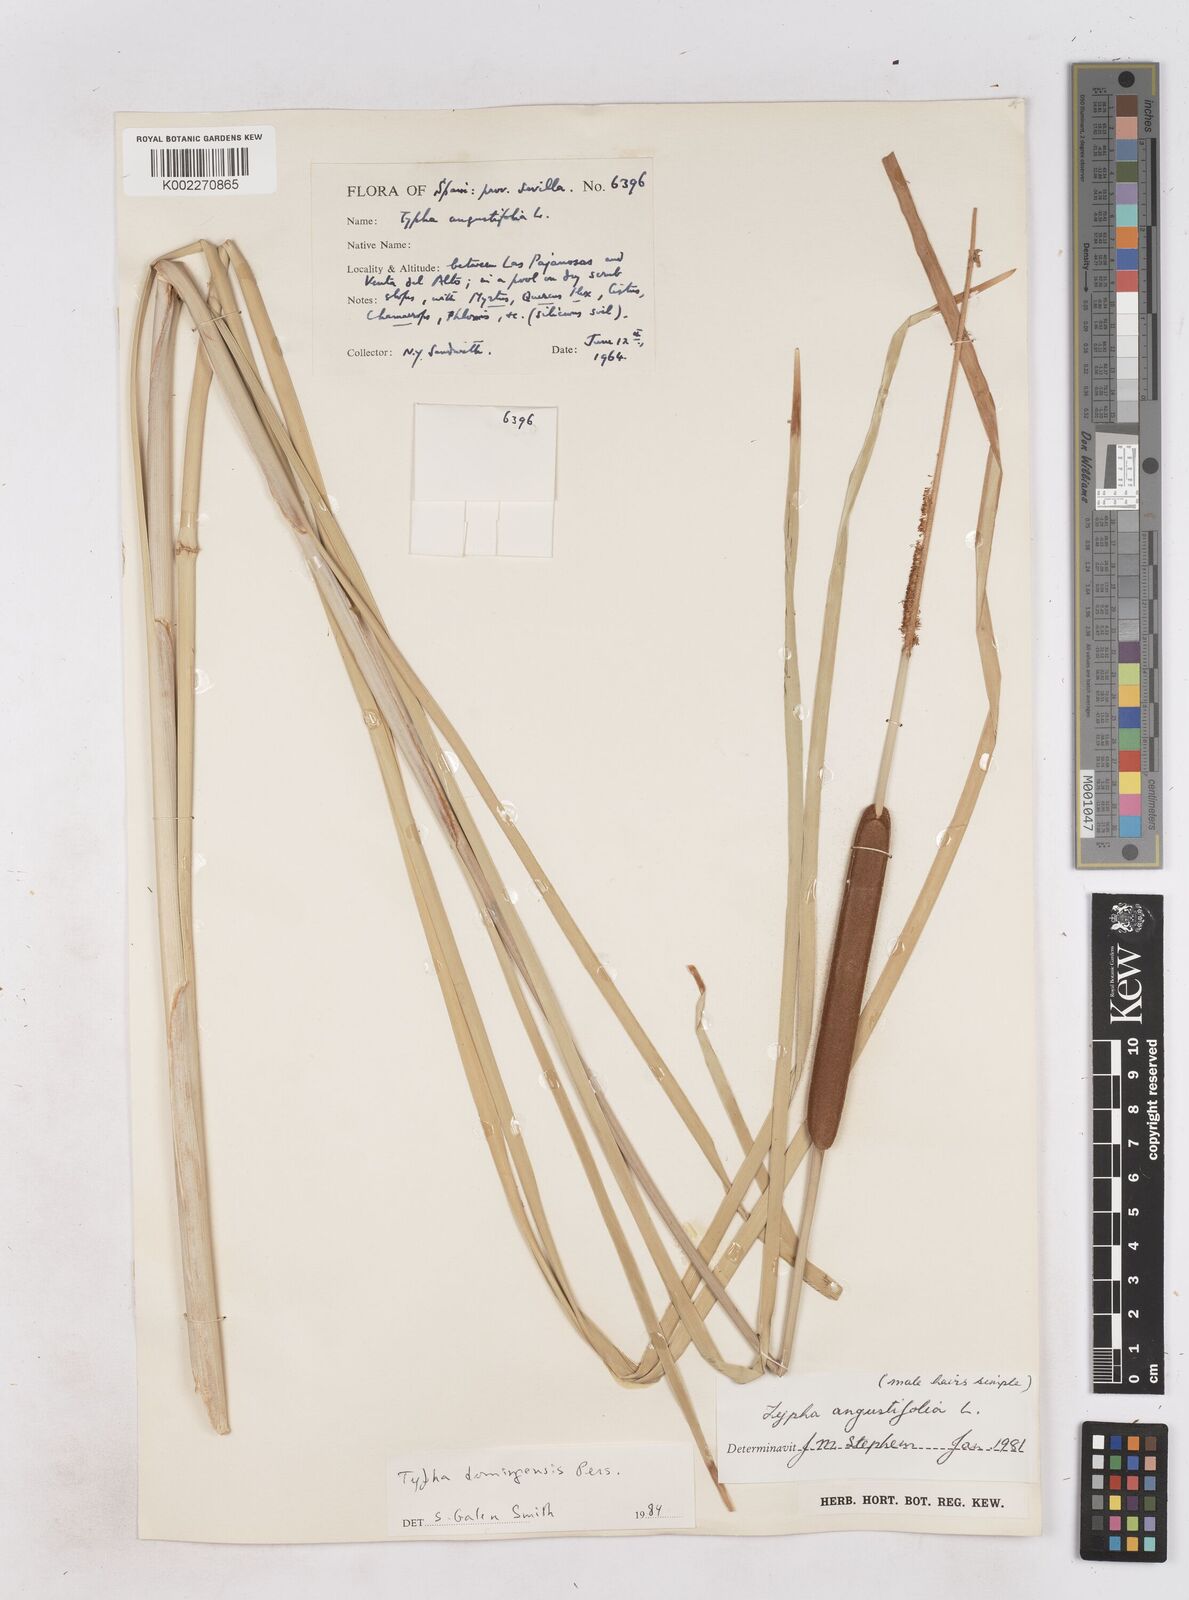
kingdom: Plantae
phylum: Tracheophyta
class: Liliopsida
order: Poales
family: Typhaceae
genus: Typha
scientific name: Typha domingensis
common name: Southern cattail
